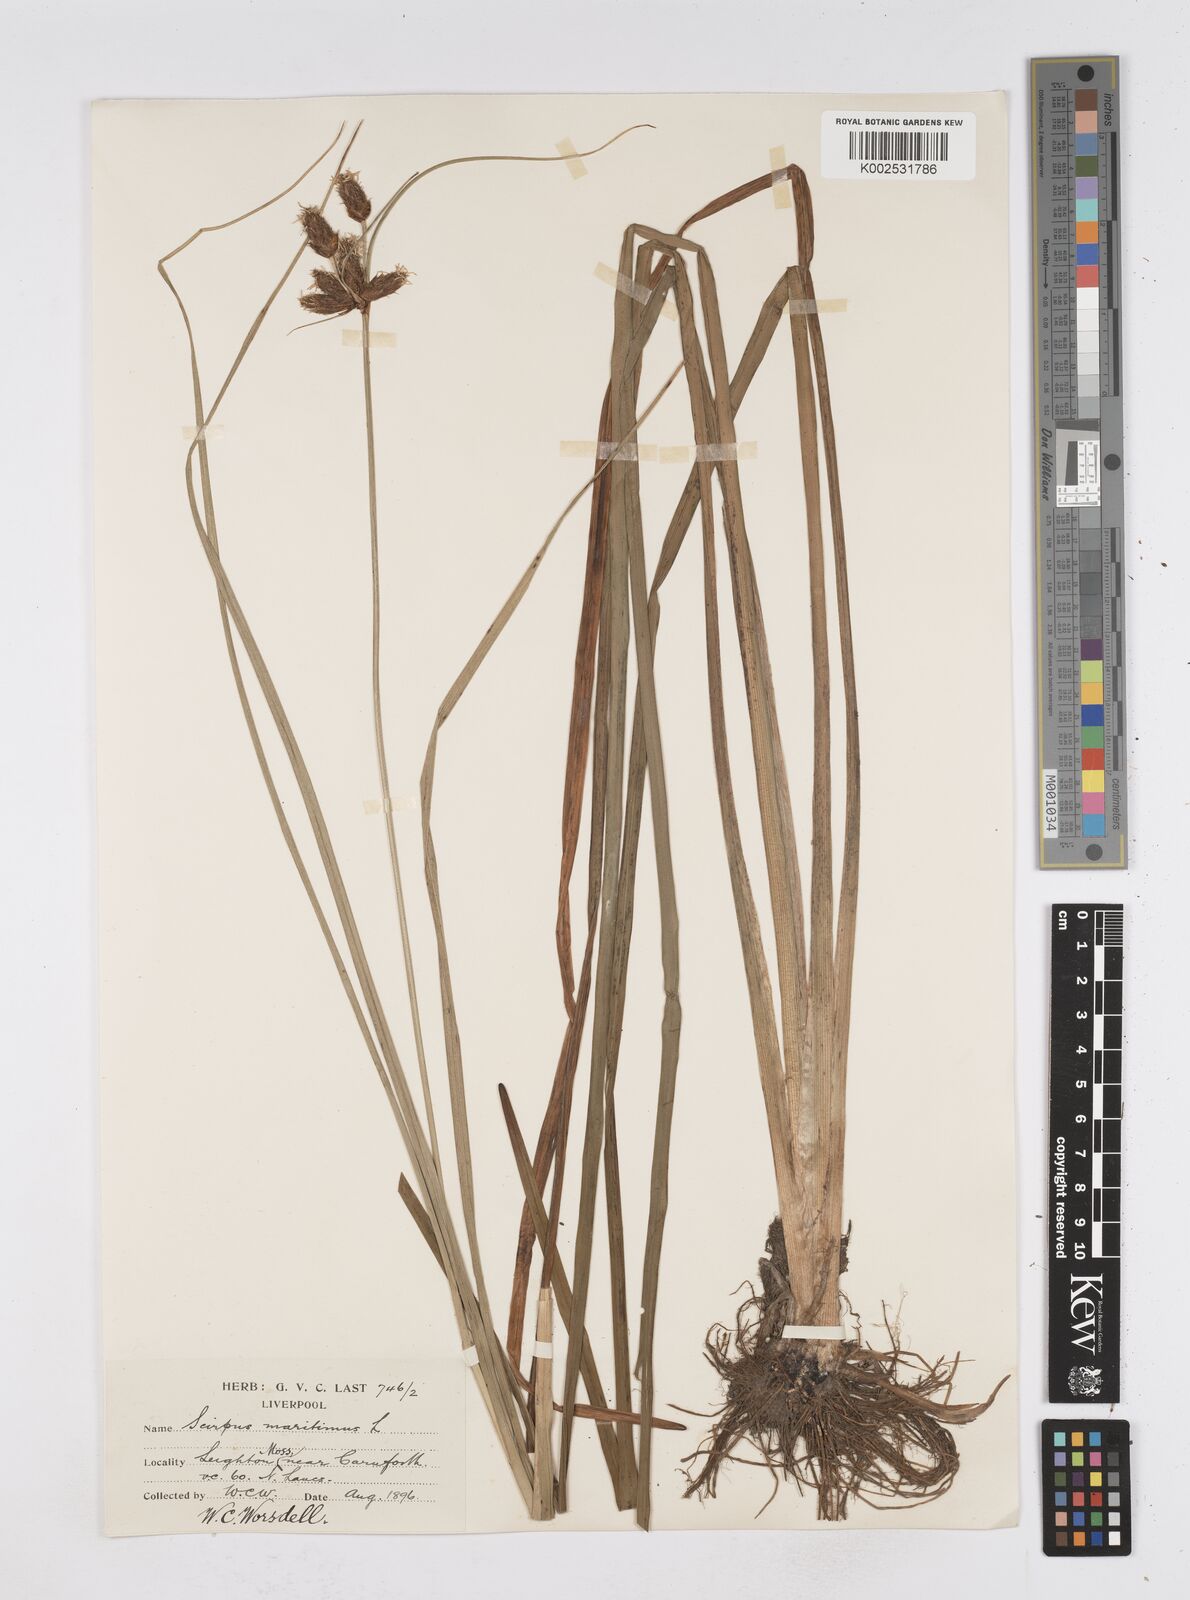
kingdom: Plantae
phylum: Tracheophyta
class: Liliopsida
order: Poales
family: Cyperaceae
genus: Bolboschoenus
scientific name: Bolboschoenus maritimus
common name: Sea club-rush
